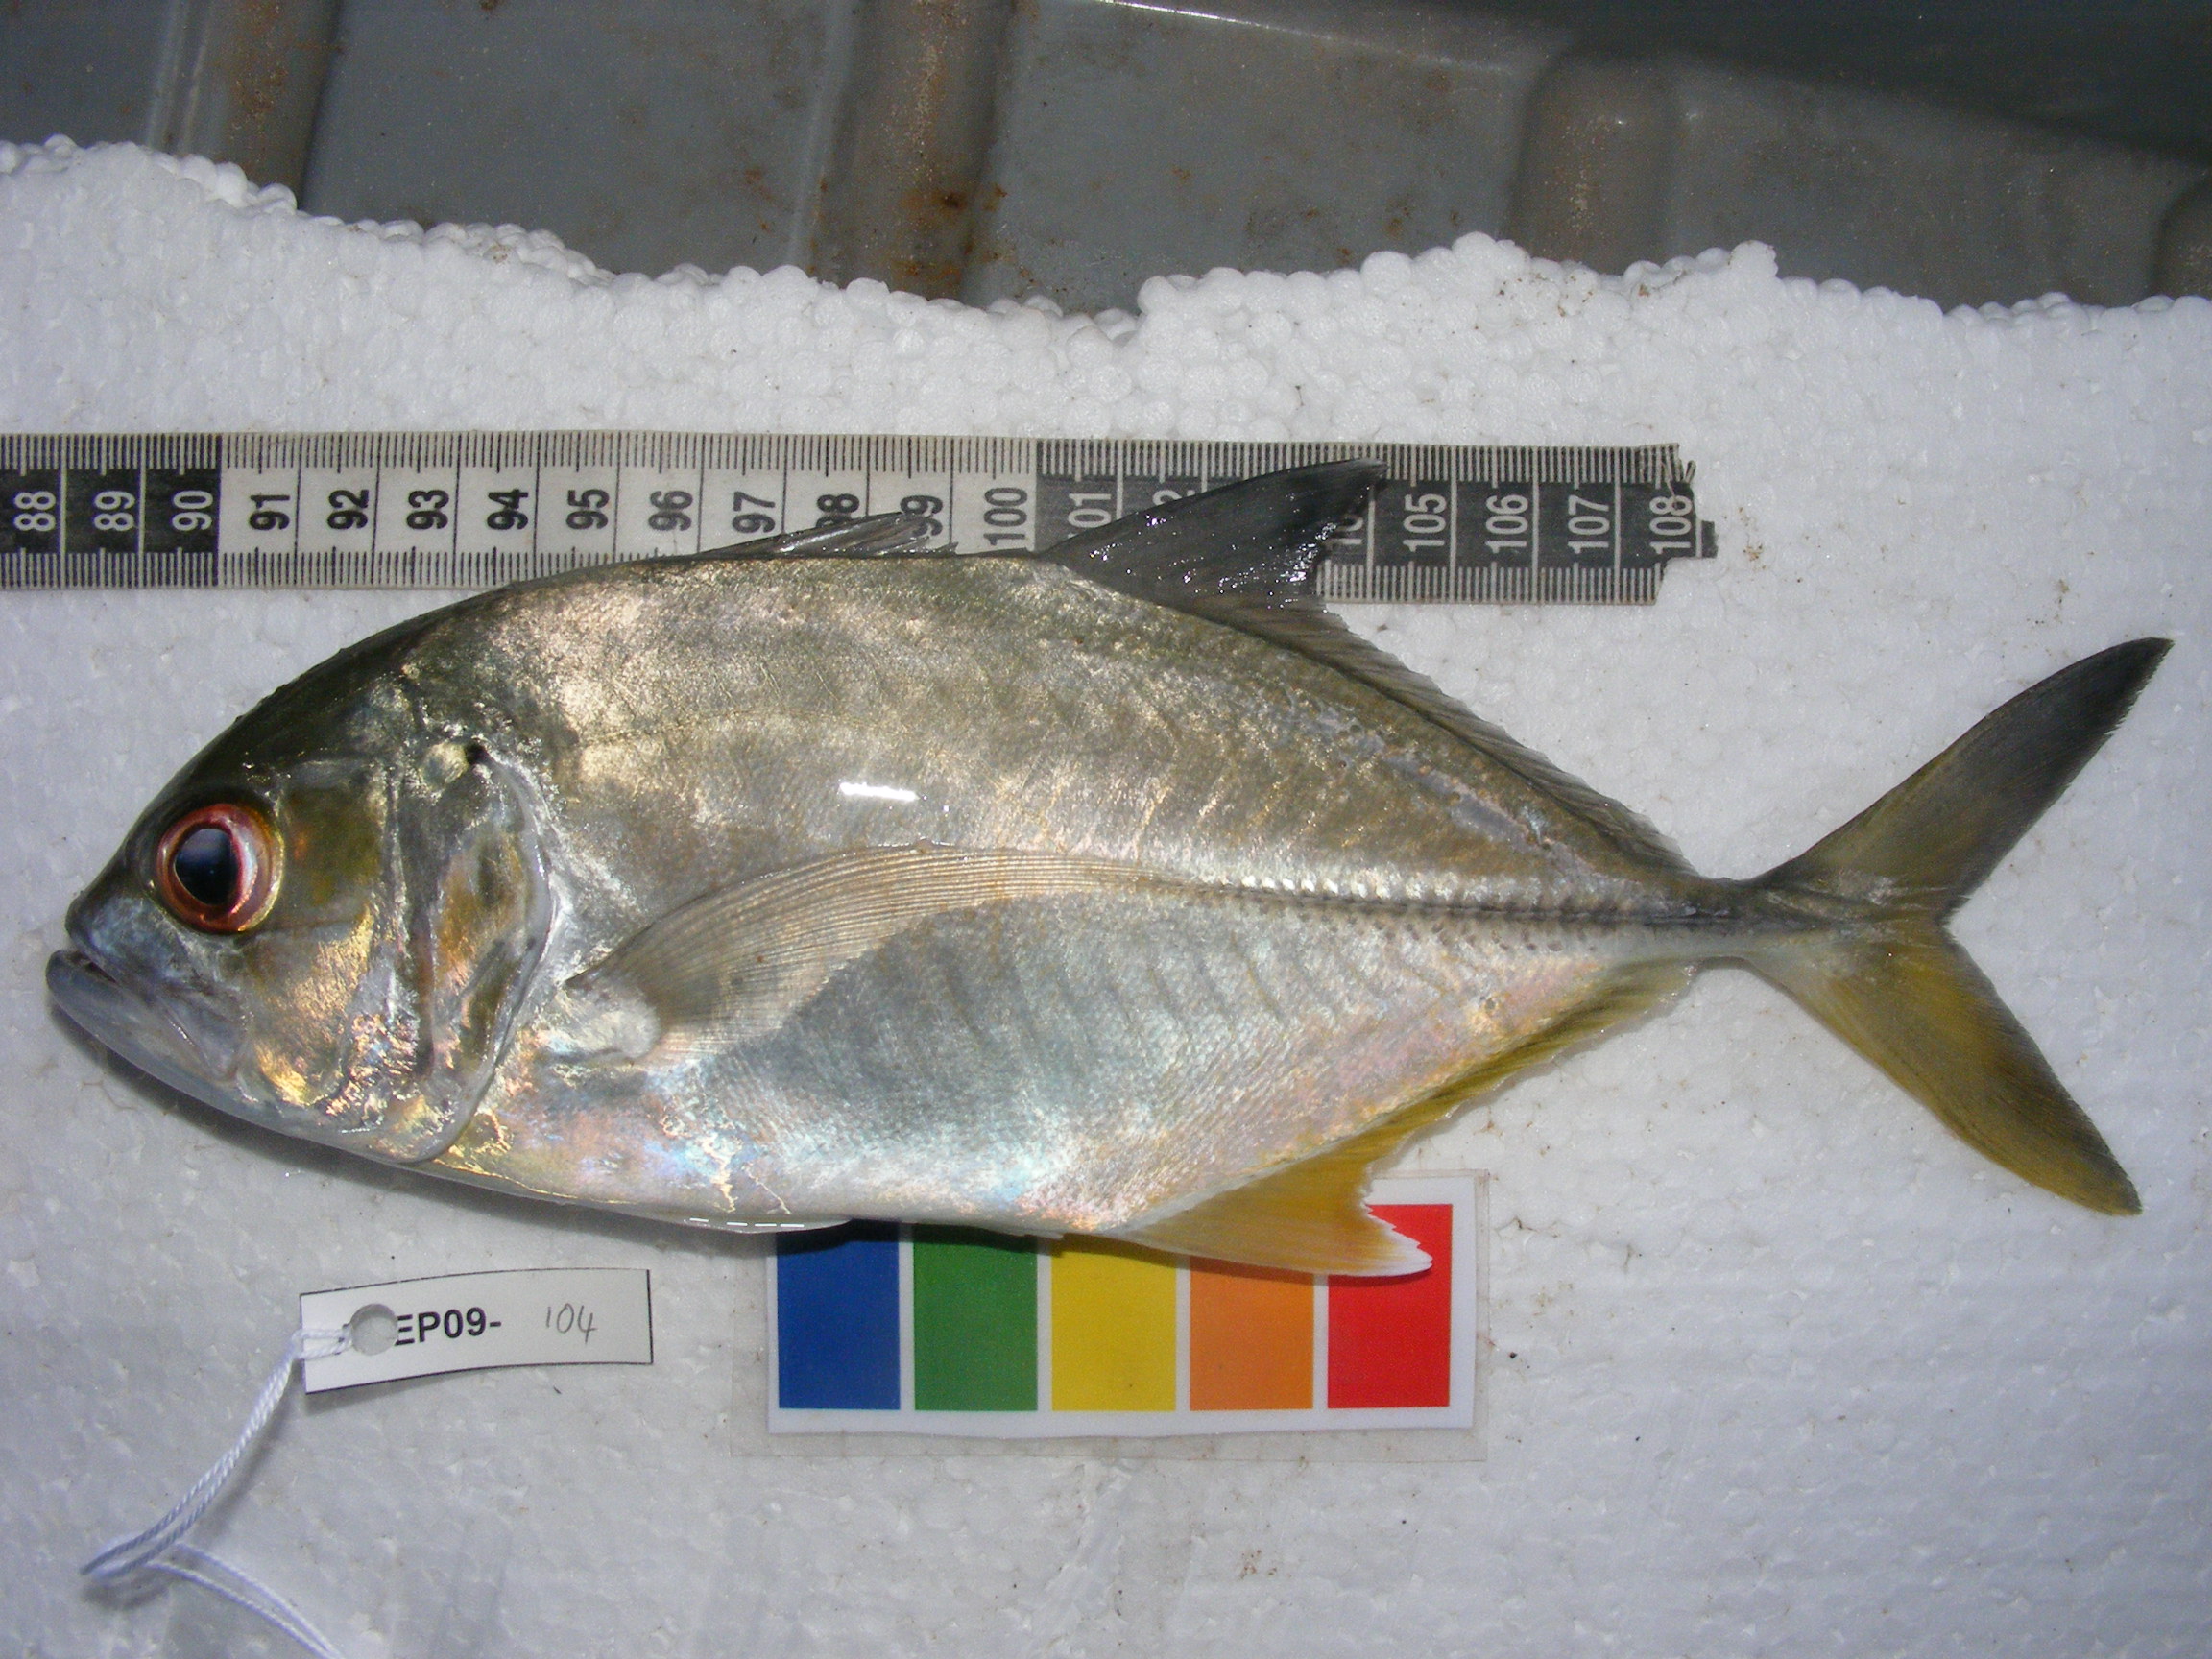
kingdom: Animalia
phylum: Chordata
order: Perciformes
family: Carangidae
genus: Caranx
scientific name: Caranx sexfasciatus
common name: Bigeye trevally
